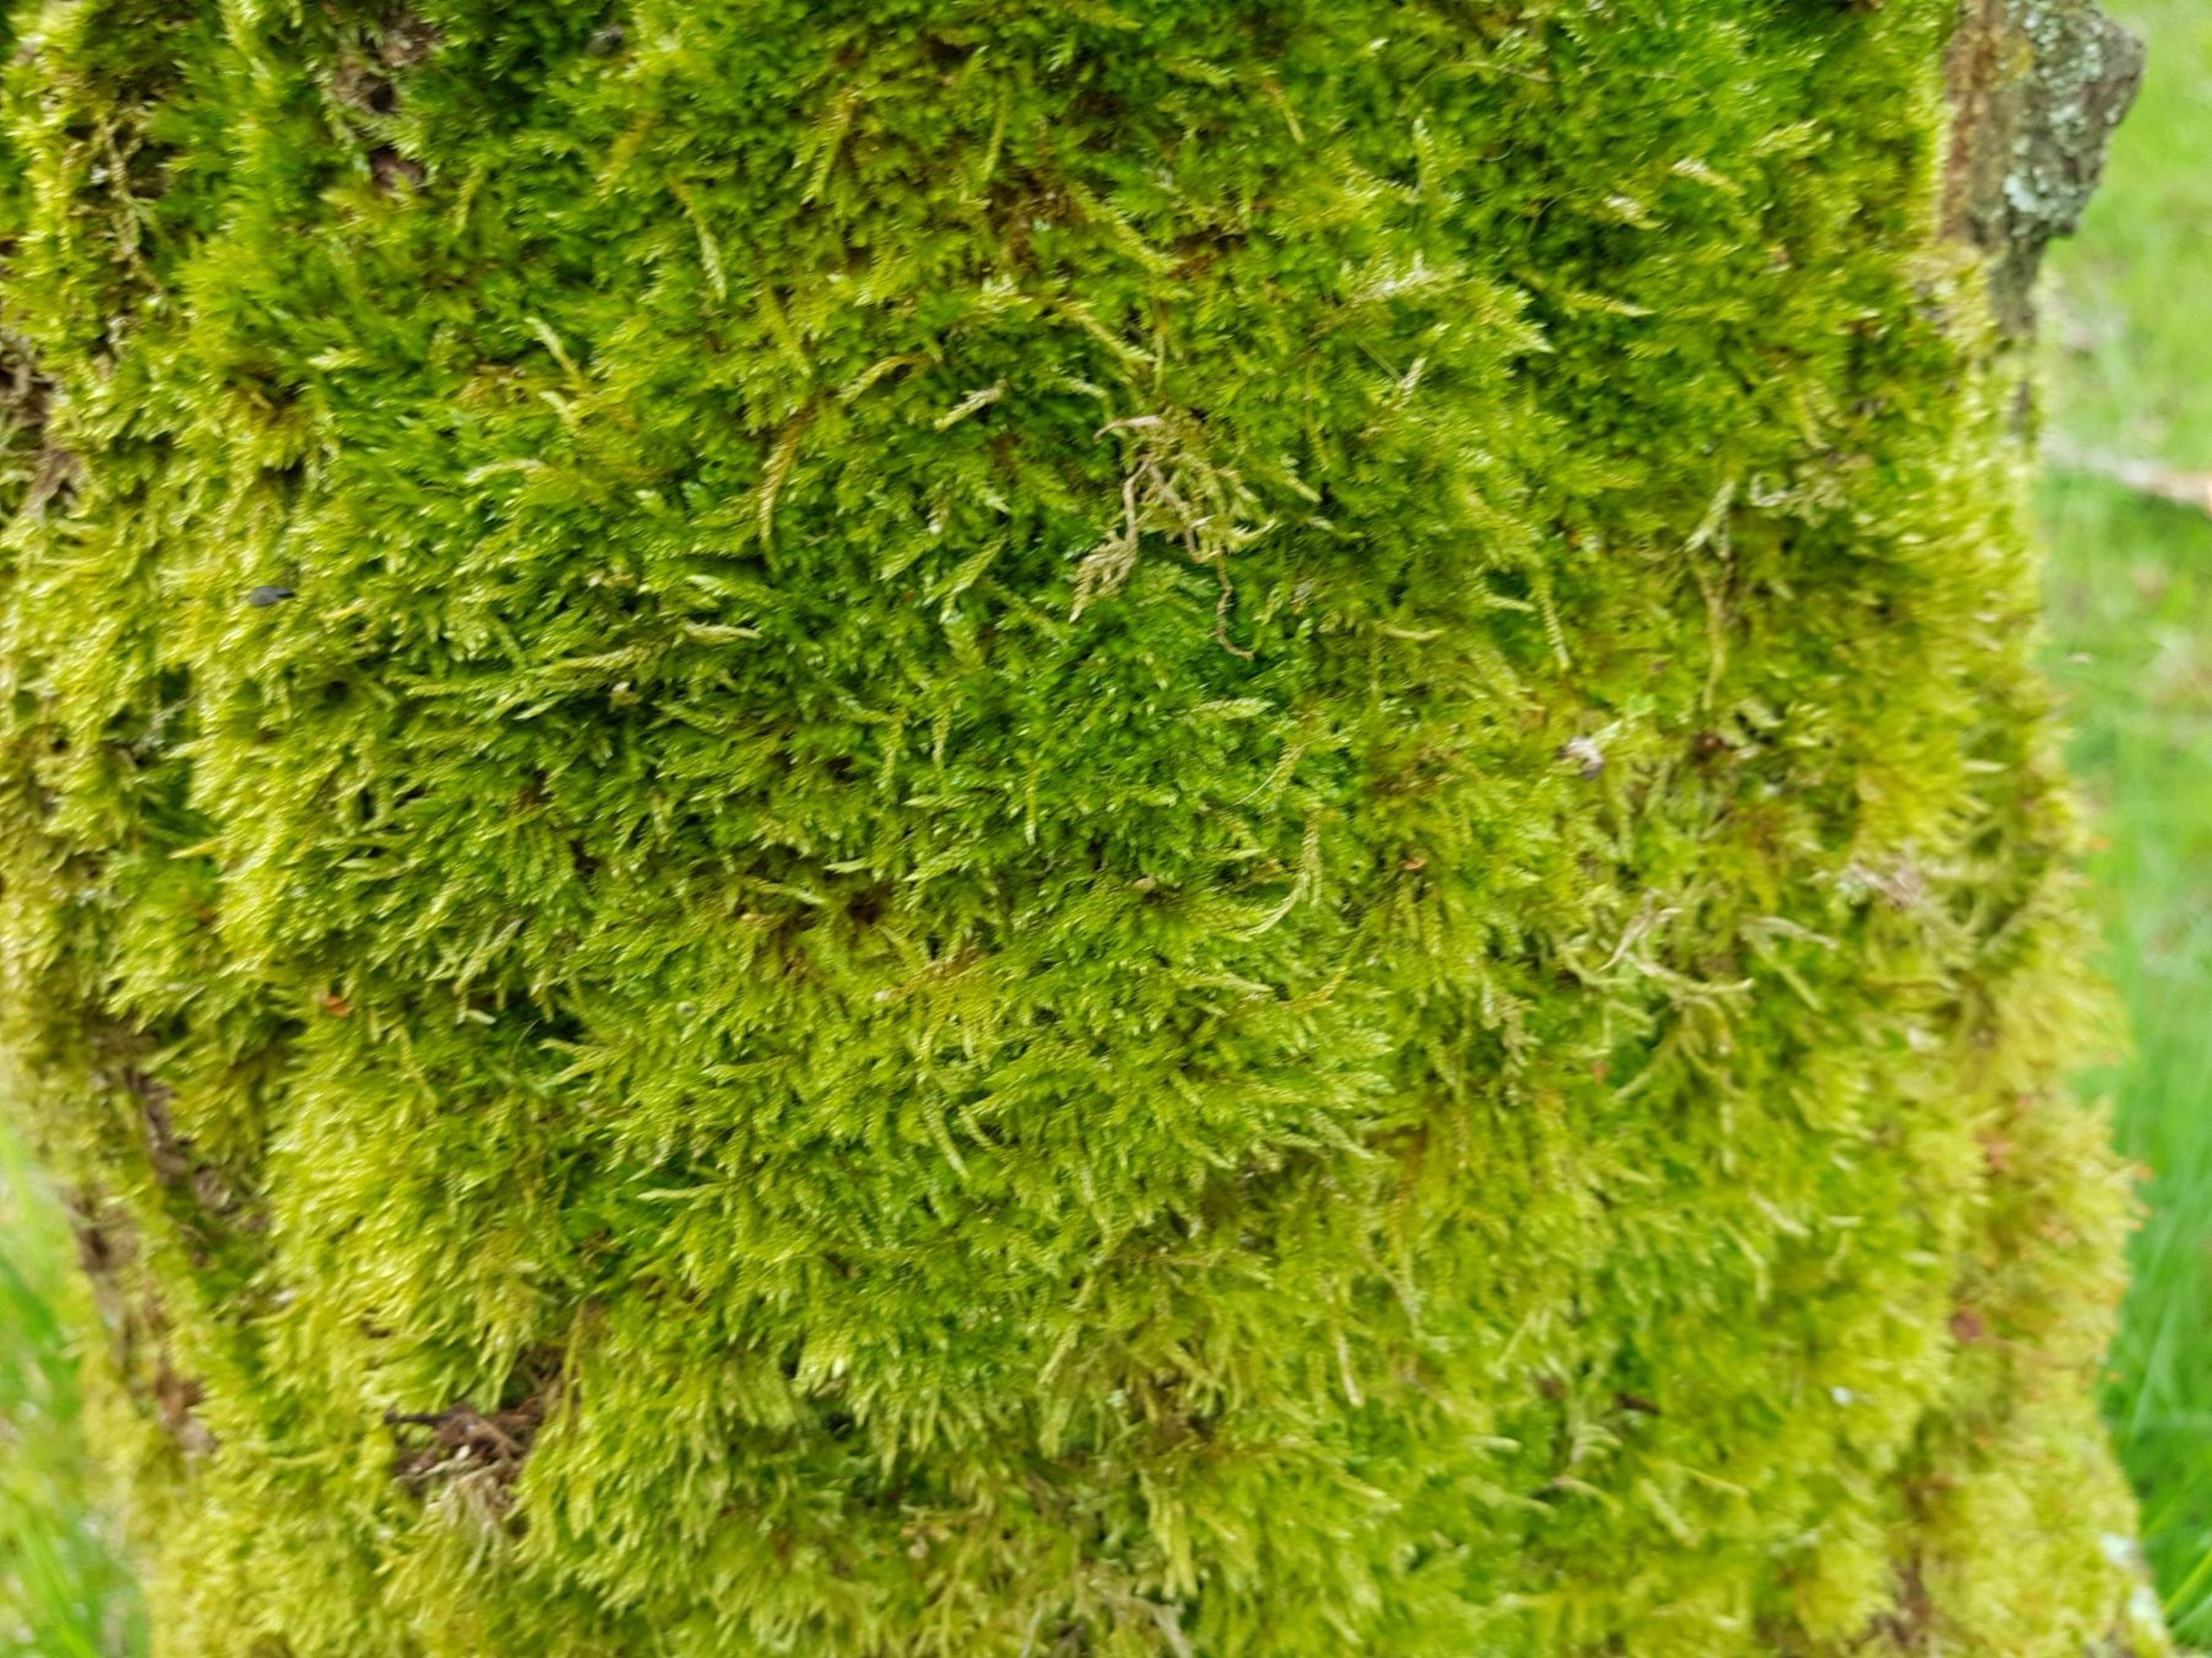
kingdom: Plantae
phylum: Bryophyta
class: Bryopsida
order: Hypnales
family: Hypnaceae
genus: Hypnum
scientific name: Hypnum cupressiforme
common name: Almindelig cypresmos
